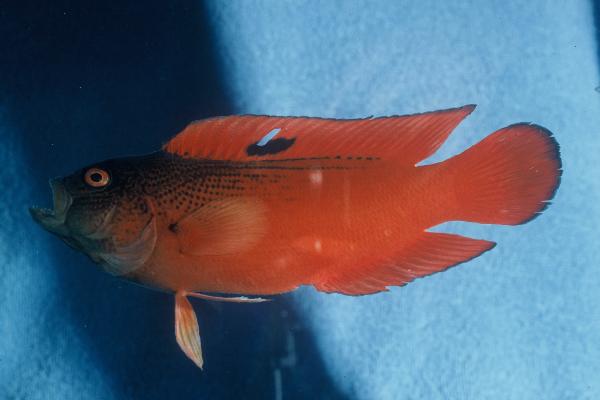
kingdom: Animalia
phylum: Chordata
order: Perciformes
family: Pseudochromidae
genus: Labracinus
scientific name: Labracinus cyclophthalmus
